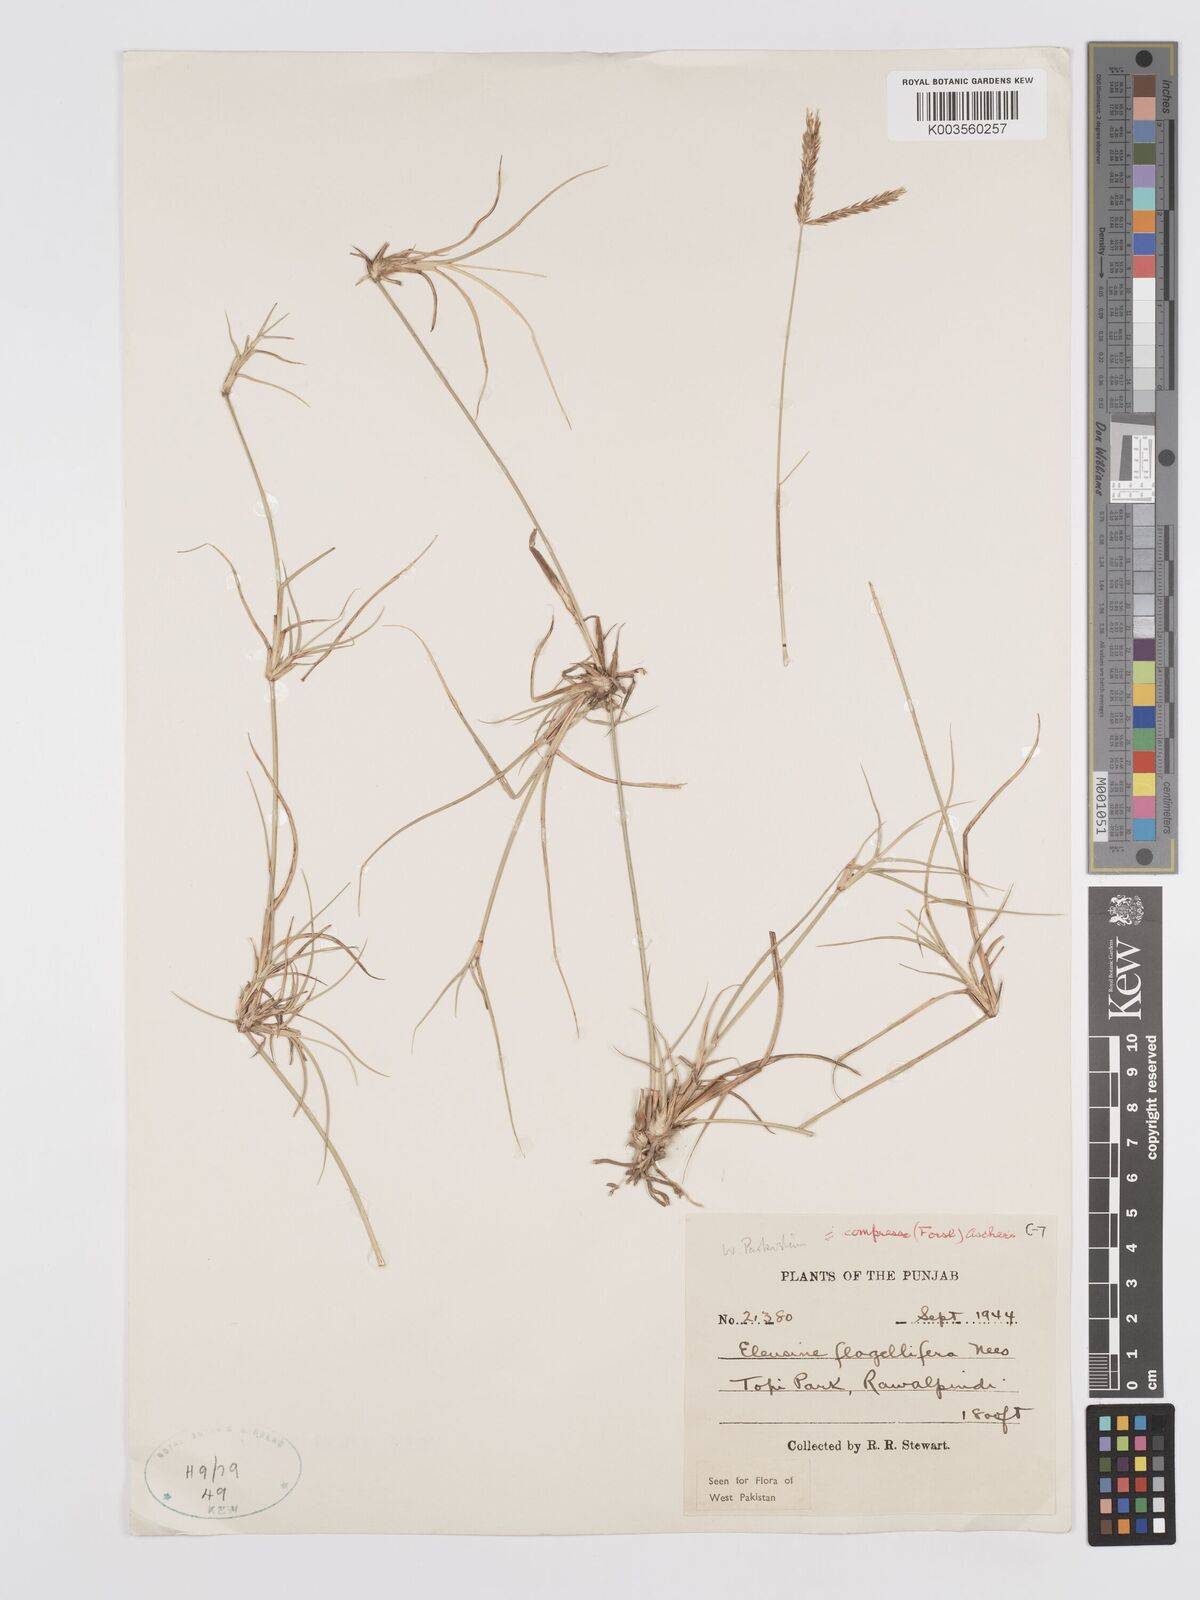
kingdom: Plantae
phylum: Tracheophyta
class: Liliopsida
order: Poales
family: Poaceae
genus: Chloris
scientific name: Chloris flagellifera
